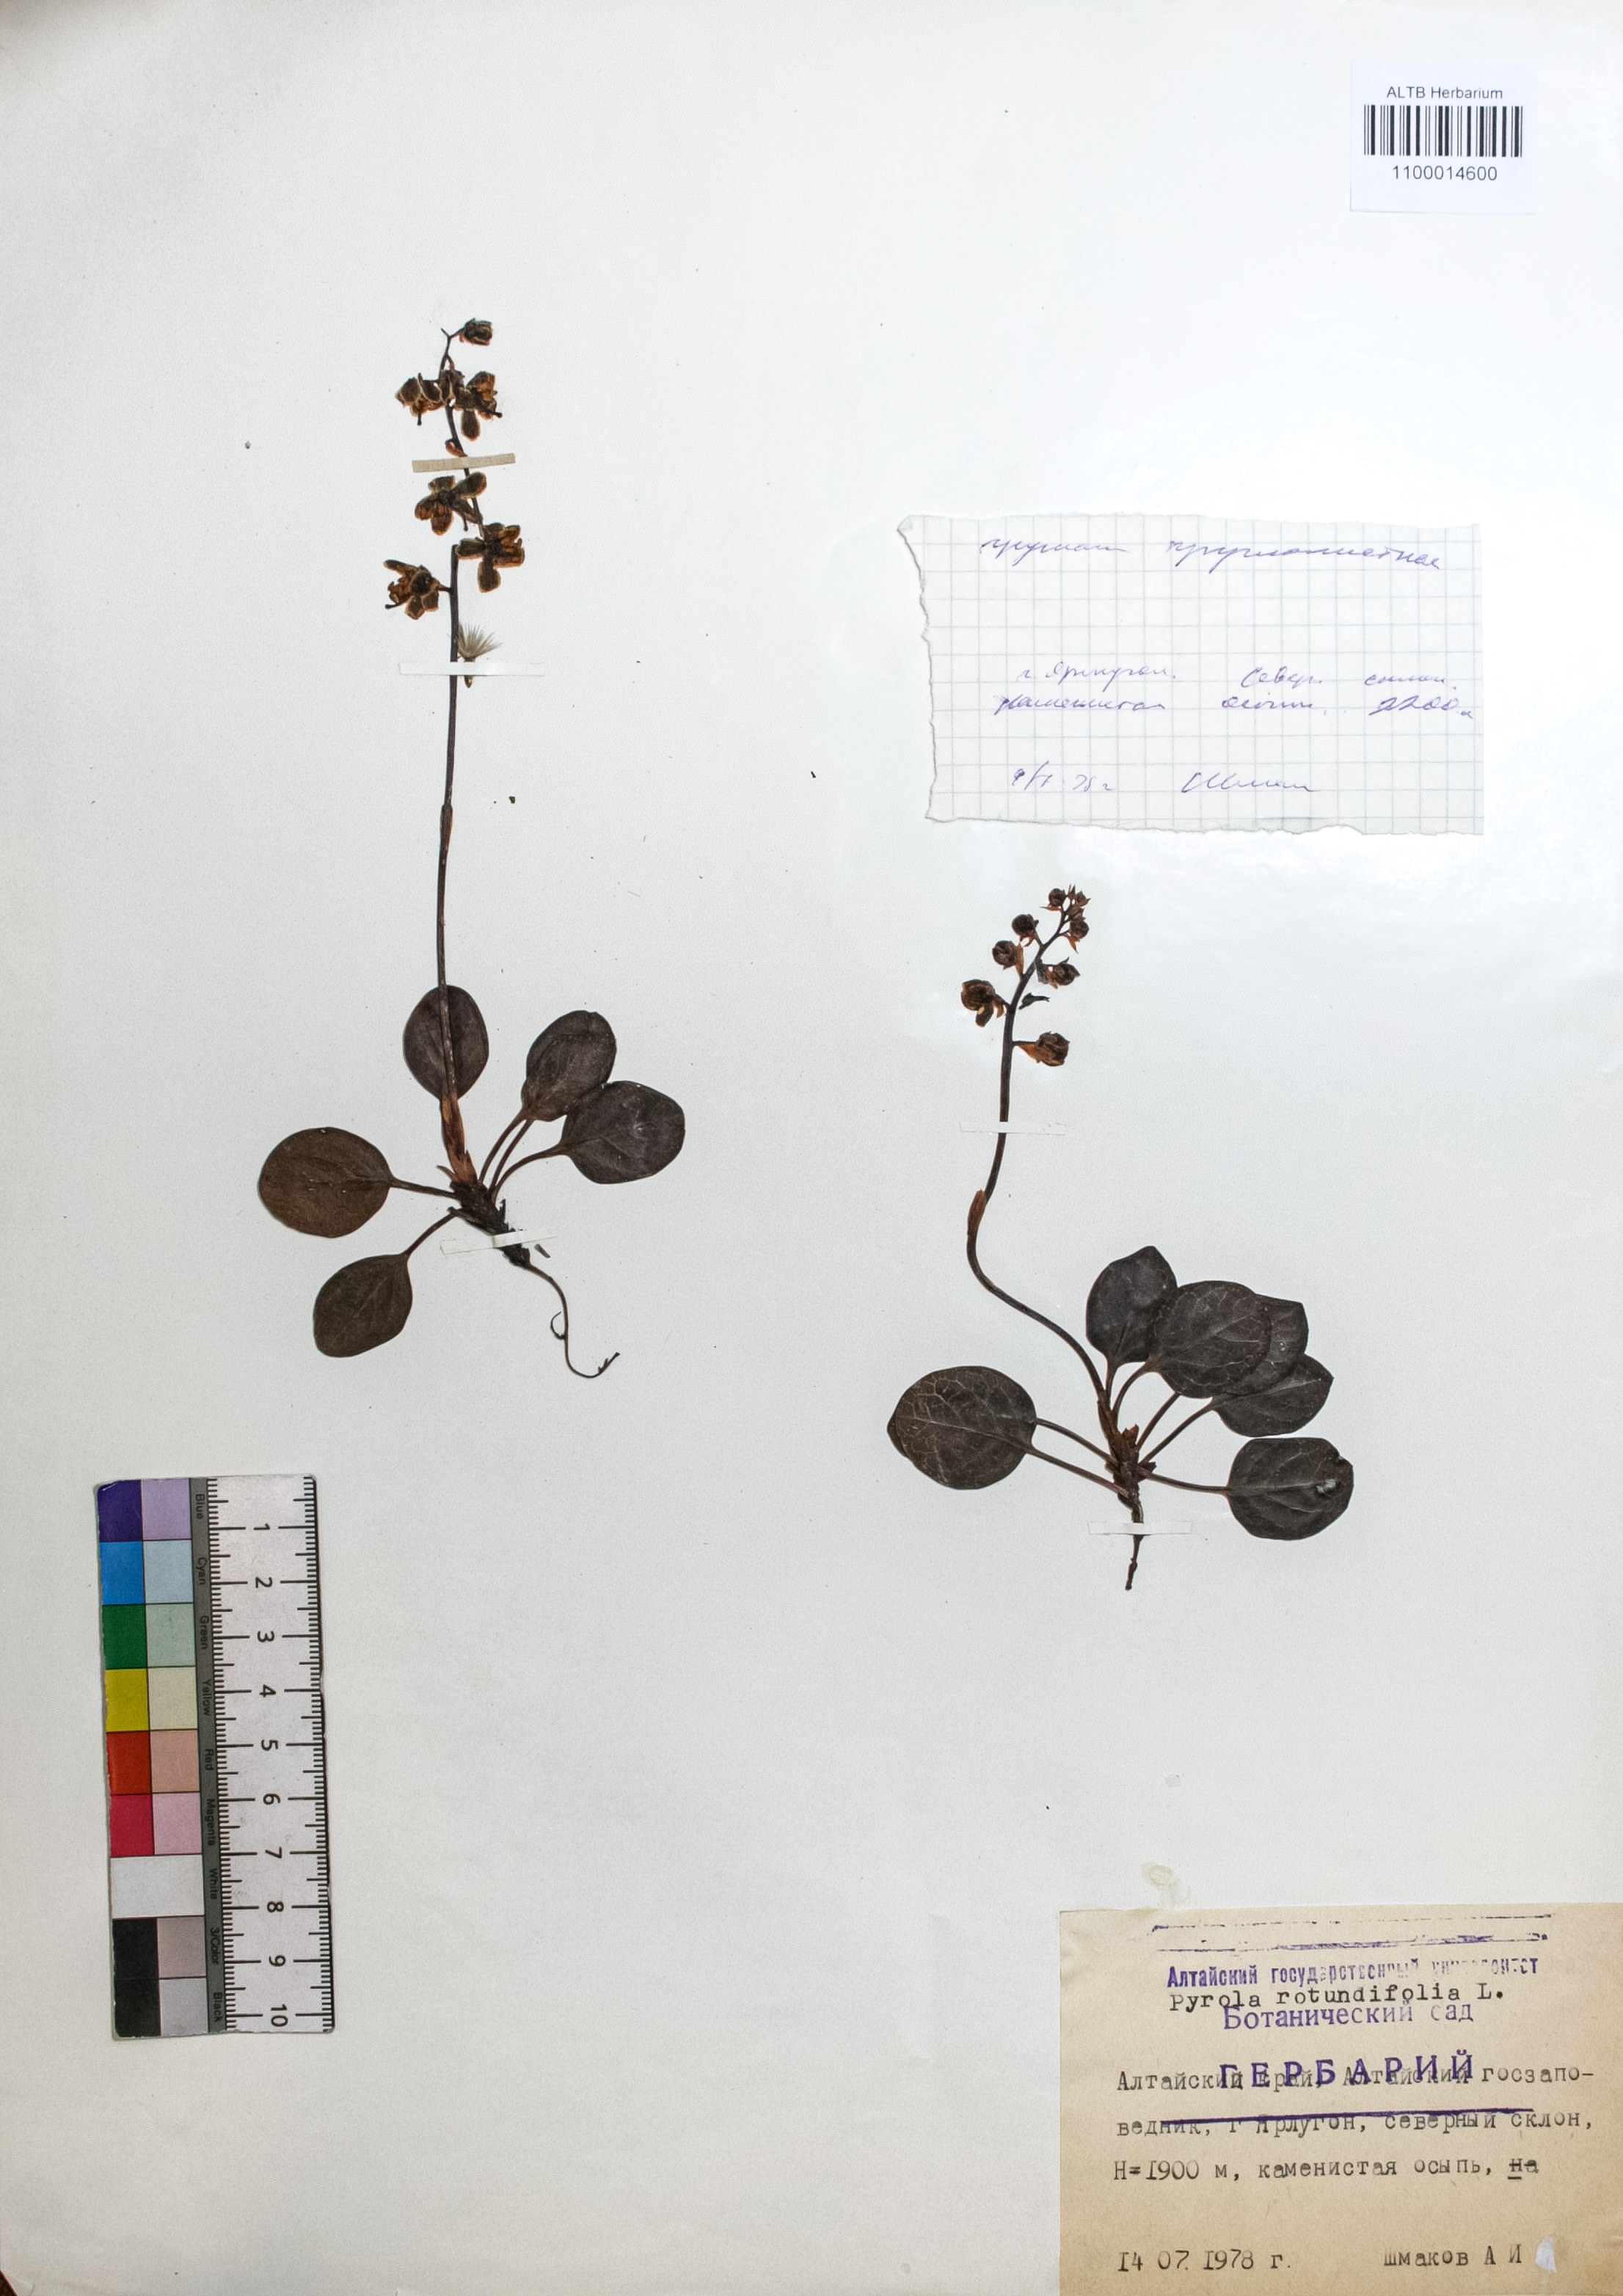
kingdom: Plantae
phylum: Tracheophyta
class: Magnoliopsida
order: Ericales
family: Ericaceae
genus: Pyrola
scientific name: Pyrola rotundifolia
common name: Round-leaved wintergreen
